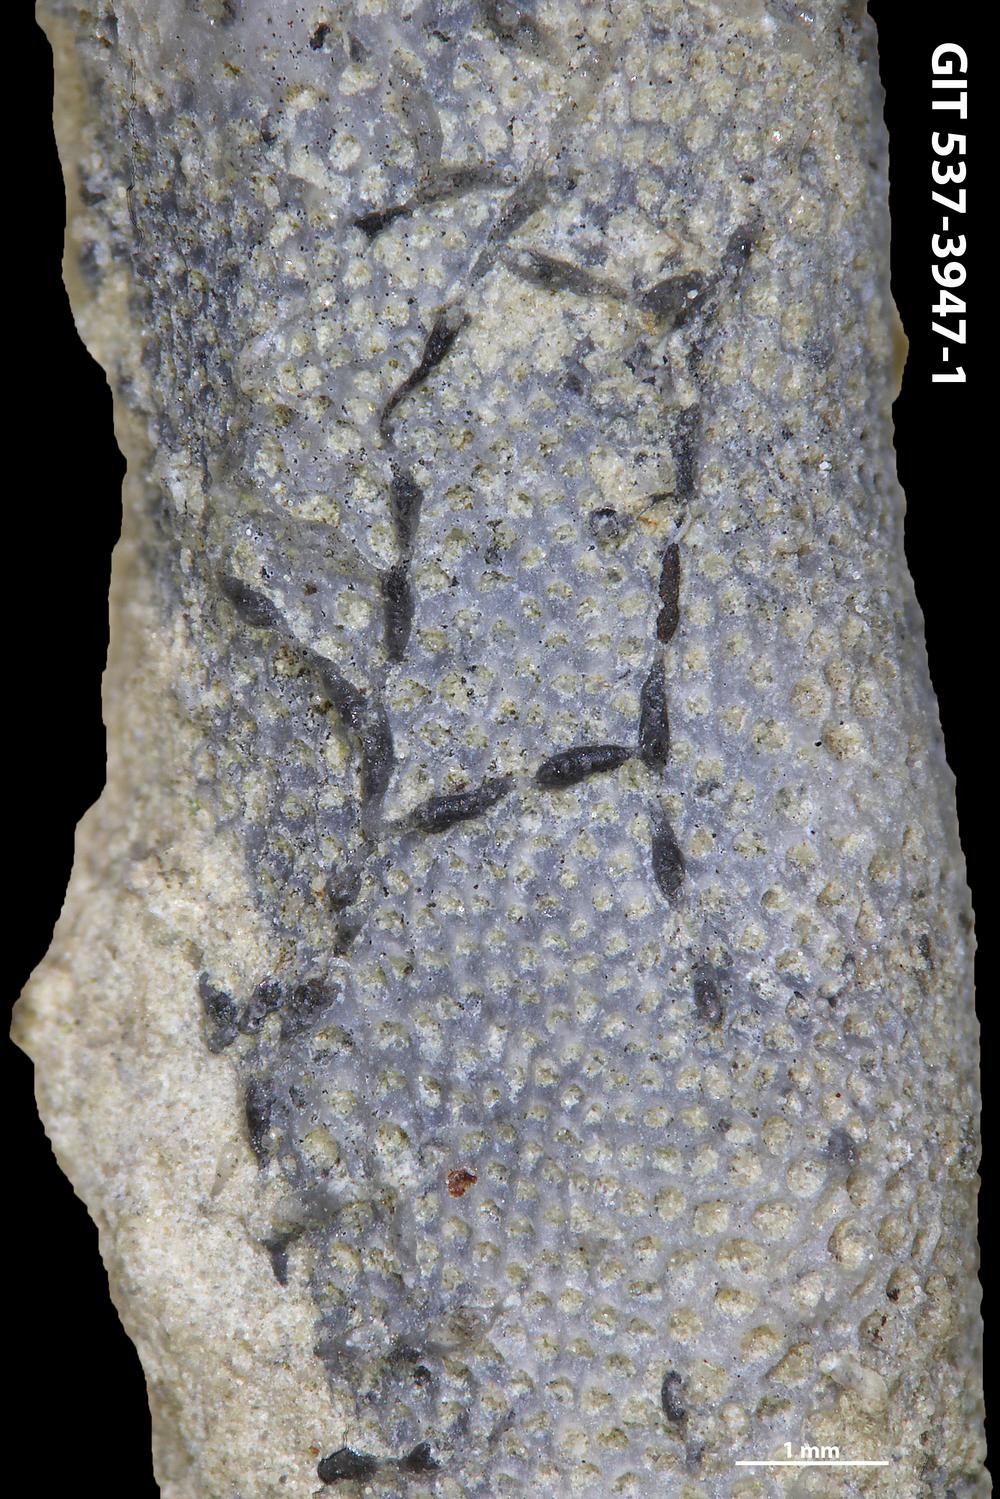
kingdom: Animalia
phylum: Bryozoa
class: Stenolaemata
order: Cyclostomatida
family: Corynotrypidae
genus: Corynotrypa
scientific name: Corynotrypa delicatula
